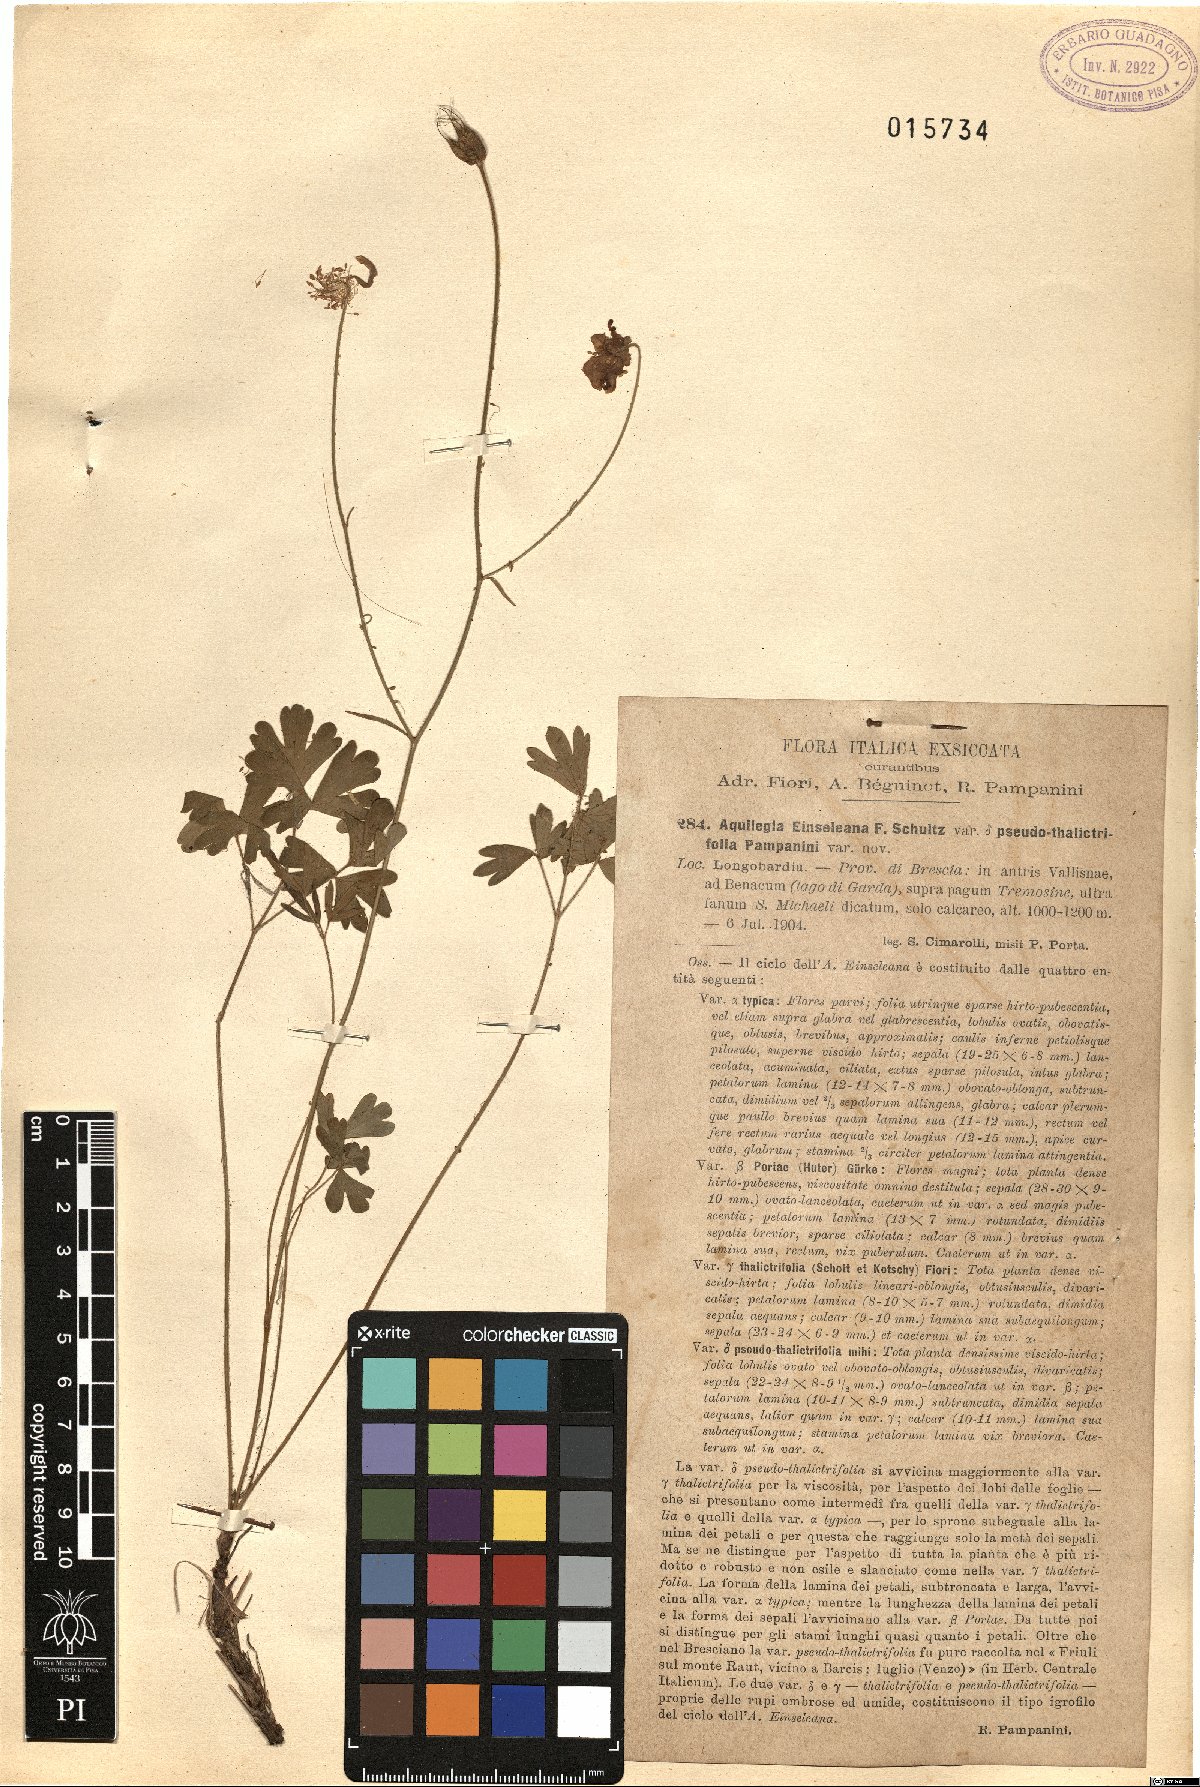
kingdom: Plantae
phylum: Tracheophyta
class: Magnoliopsida
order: Ranunculales
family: Ranunculaceae
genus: Aquilegia
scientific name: Aquilegia einseleana
